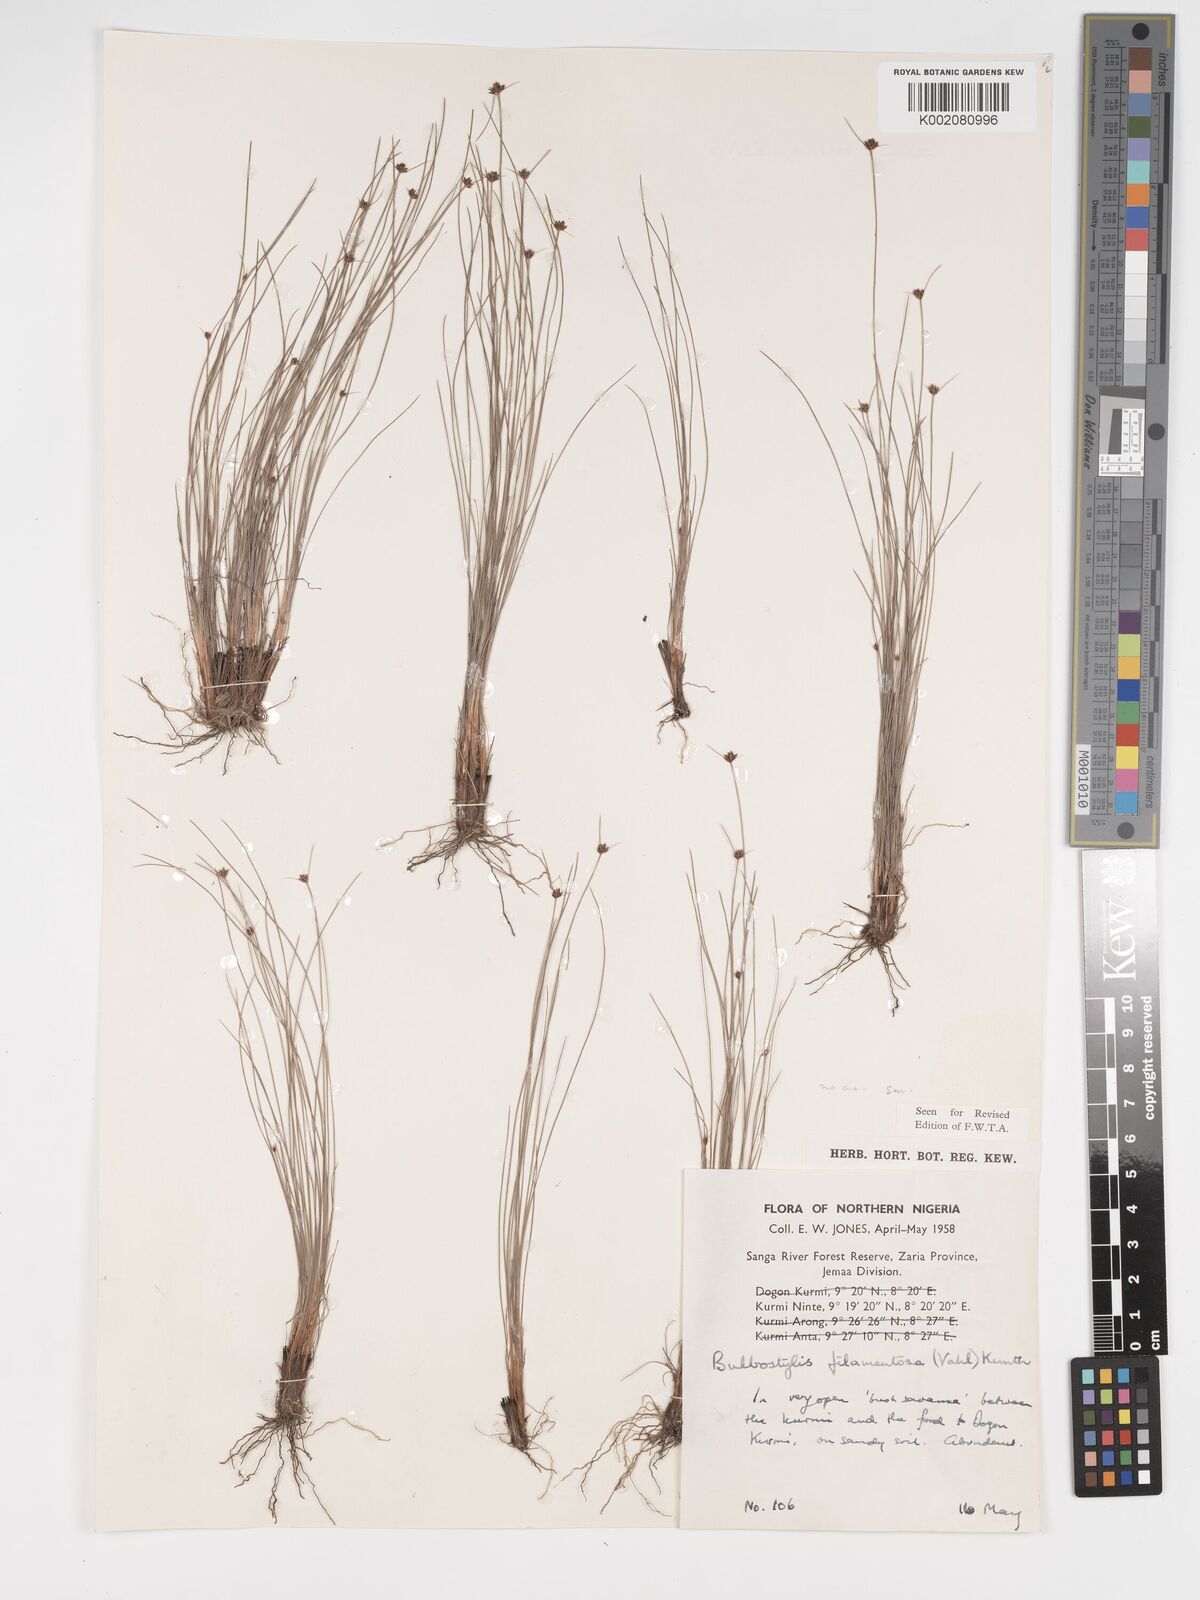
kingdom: Plantae
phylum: Tracheophyta
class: Liliopsida
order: Poales
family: Cyperaceae
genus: Bulbostylis
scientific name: Bulbostylis filamentosa
